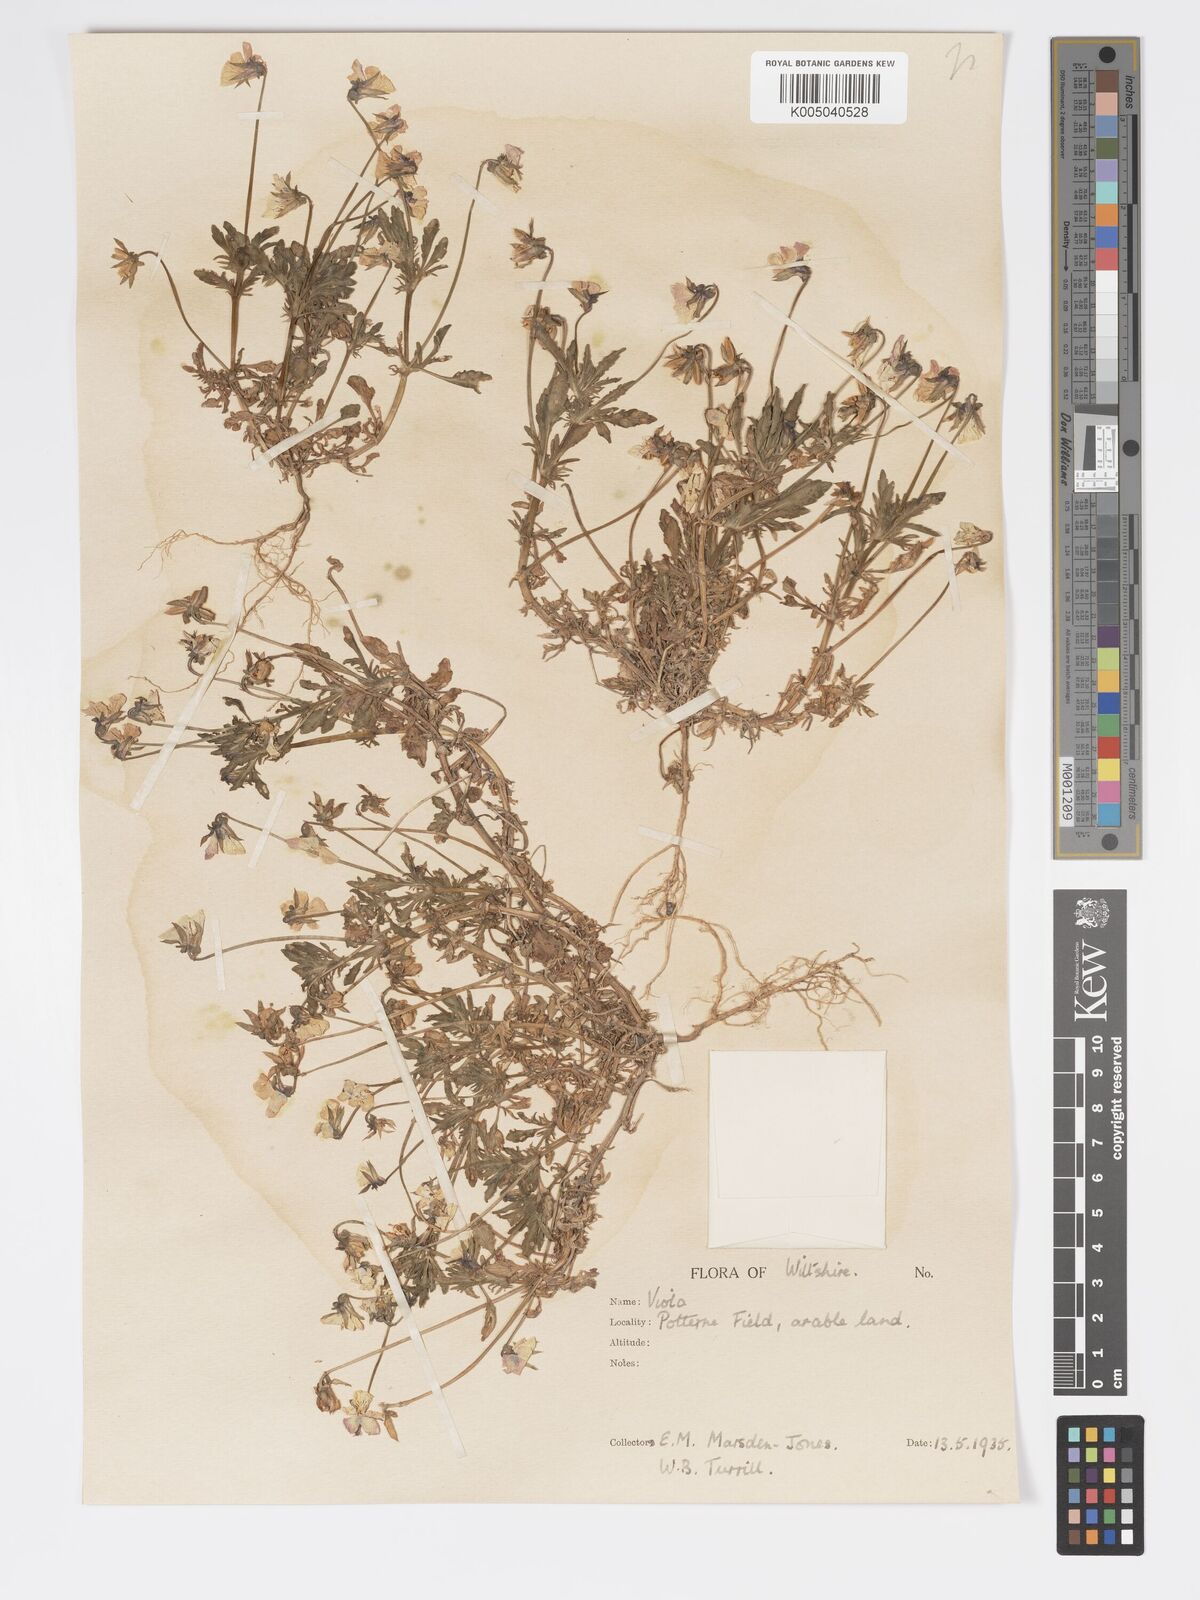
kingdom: Plantae
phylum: Tracheophyta
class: Magnoliopsida
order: Malpighiales
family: Violaceae
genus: Viola
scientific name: Viola
